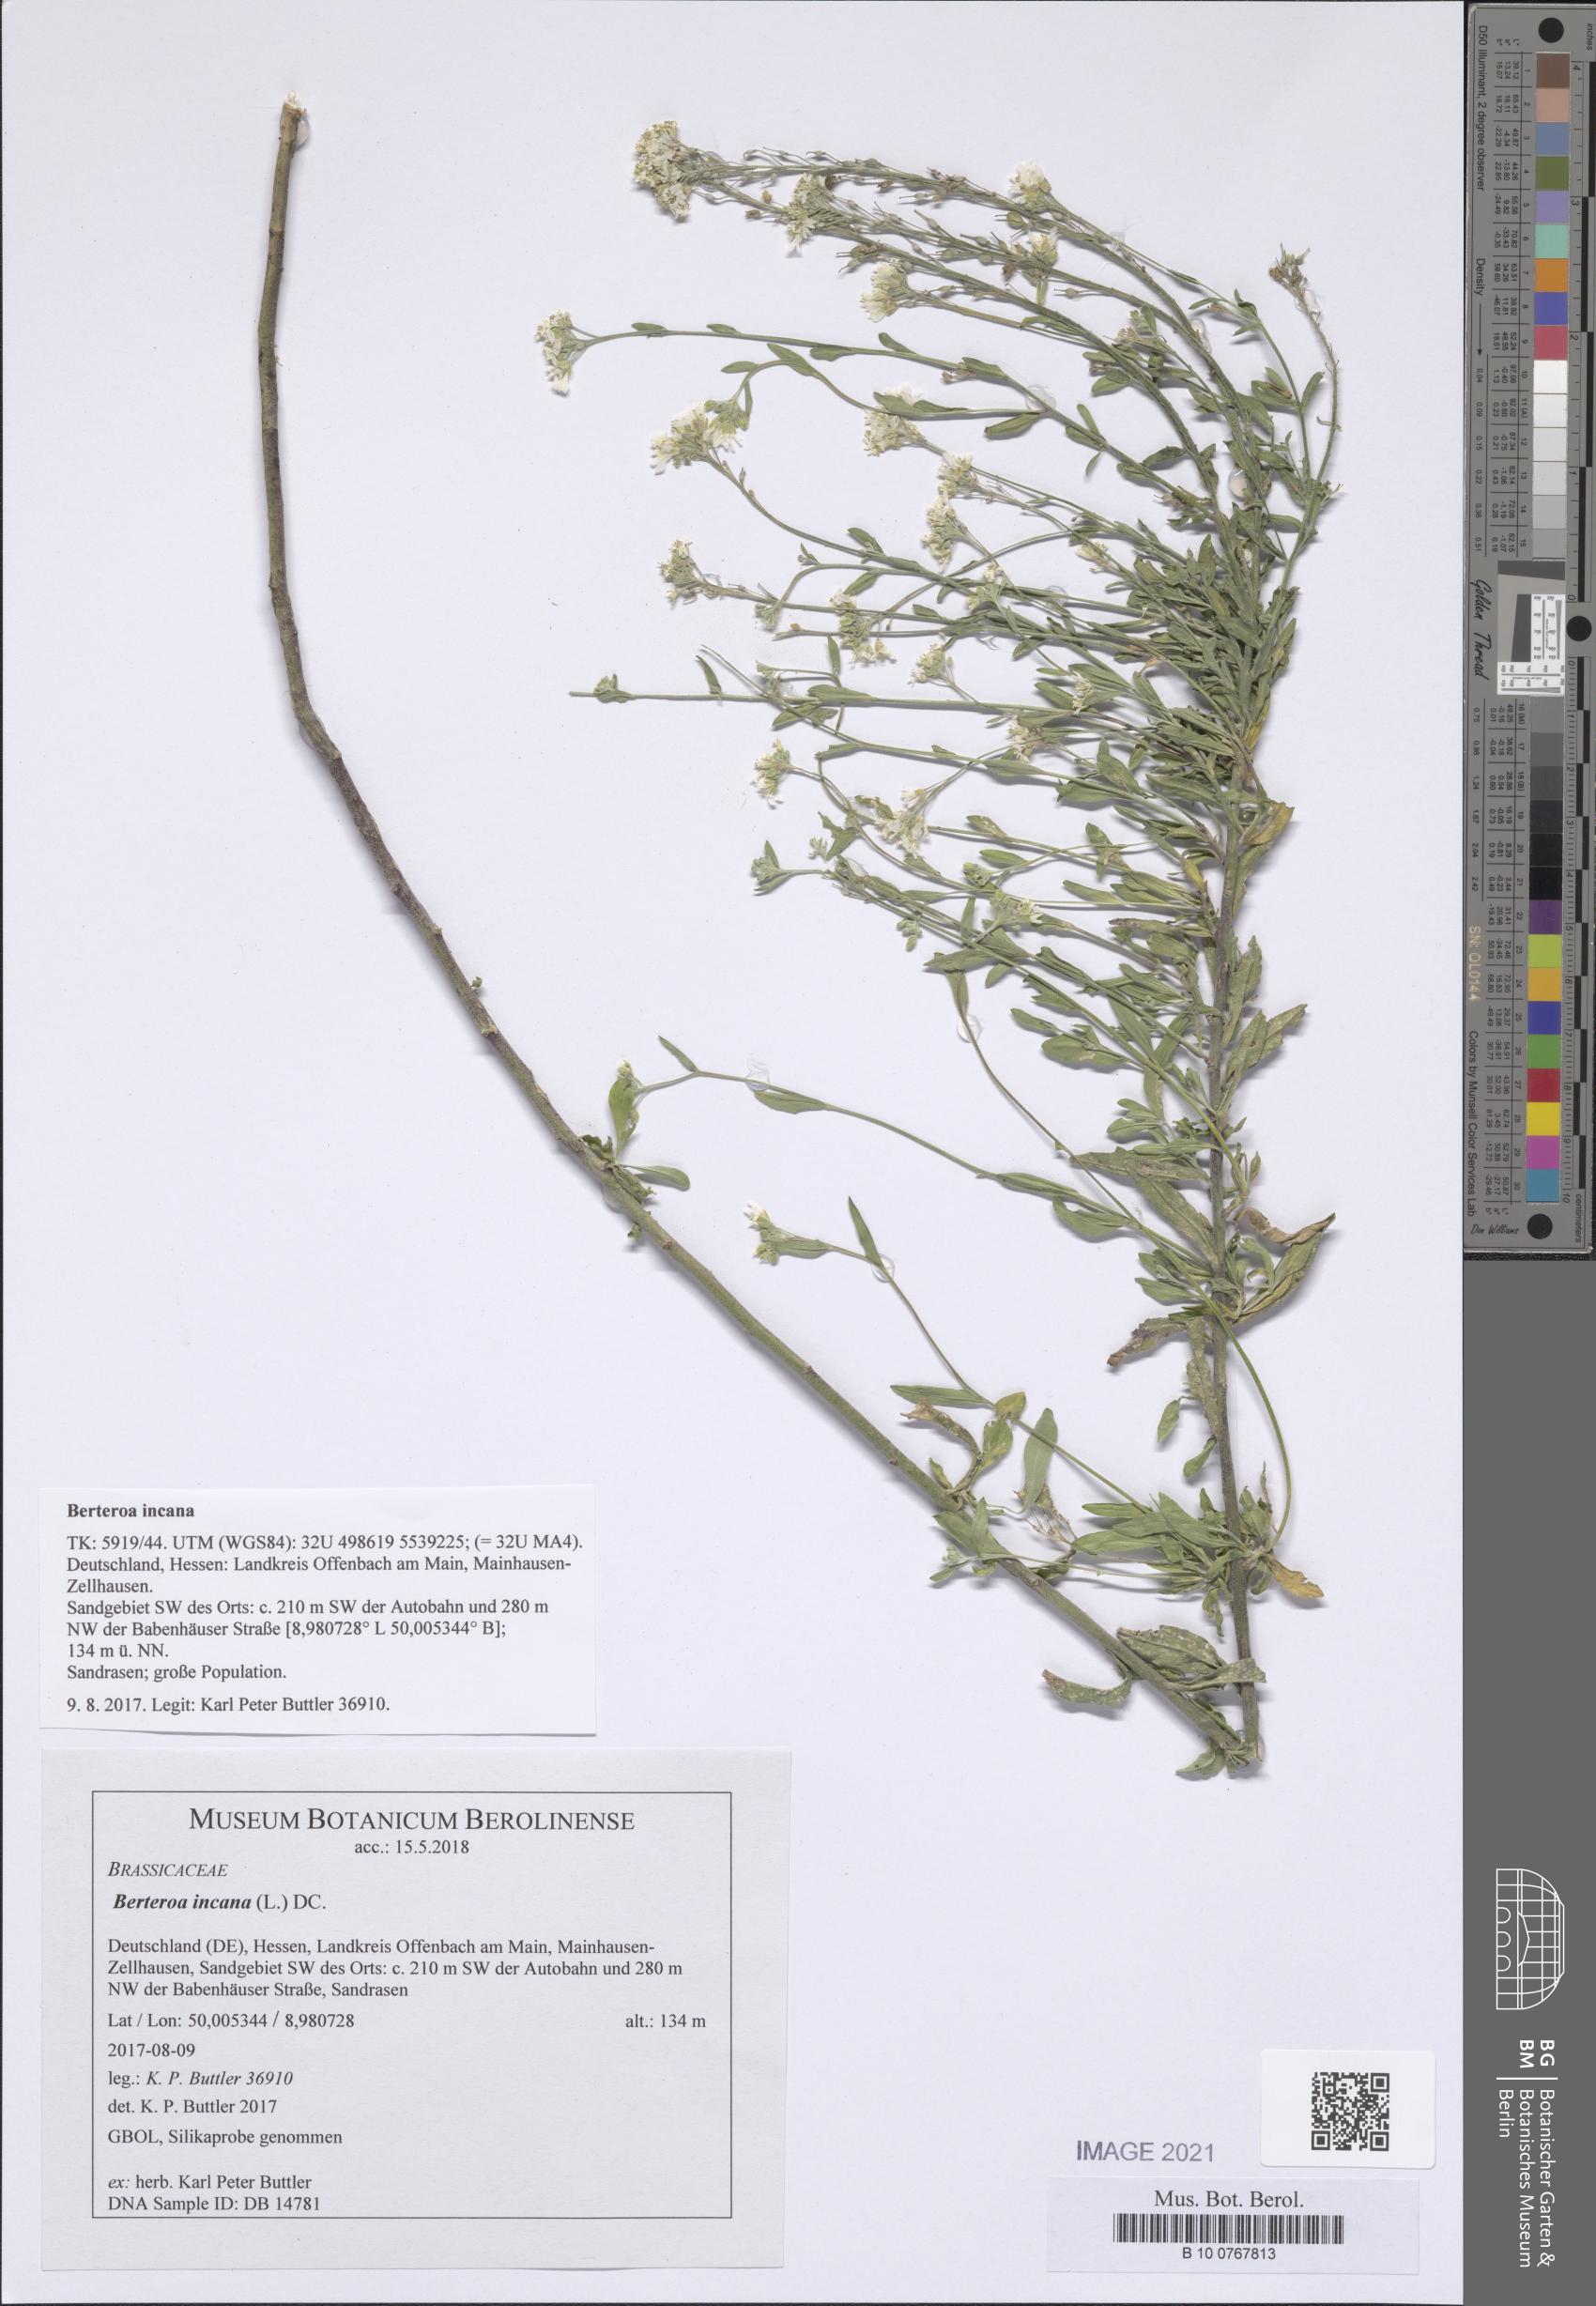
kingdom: Plantae
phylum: Tracheophyta
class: Magnoliopsida
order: Brassicales
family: Brassicaceae
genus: Berteroa
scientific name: Berteroa incana
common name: Hoary alison
